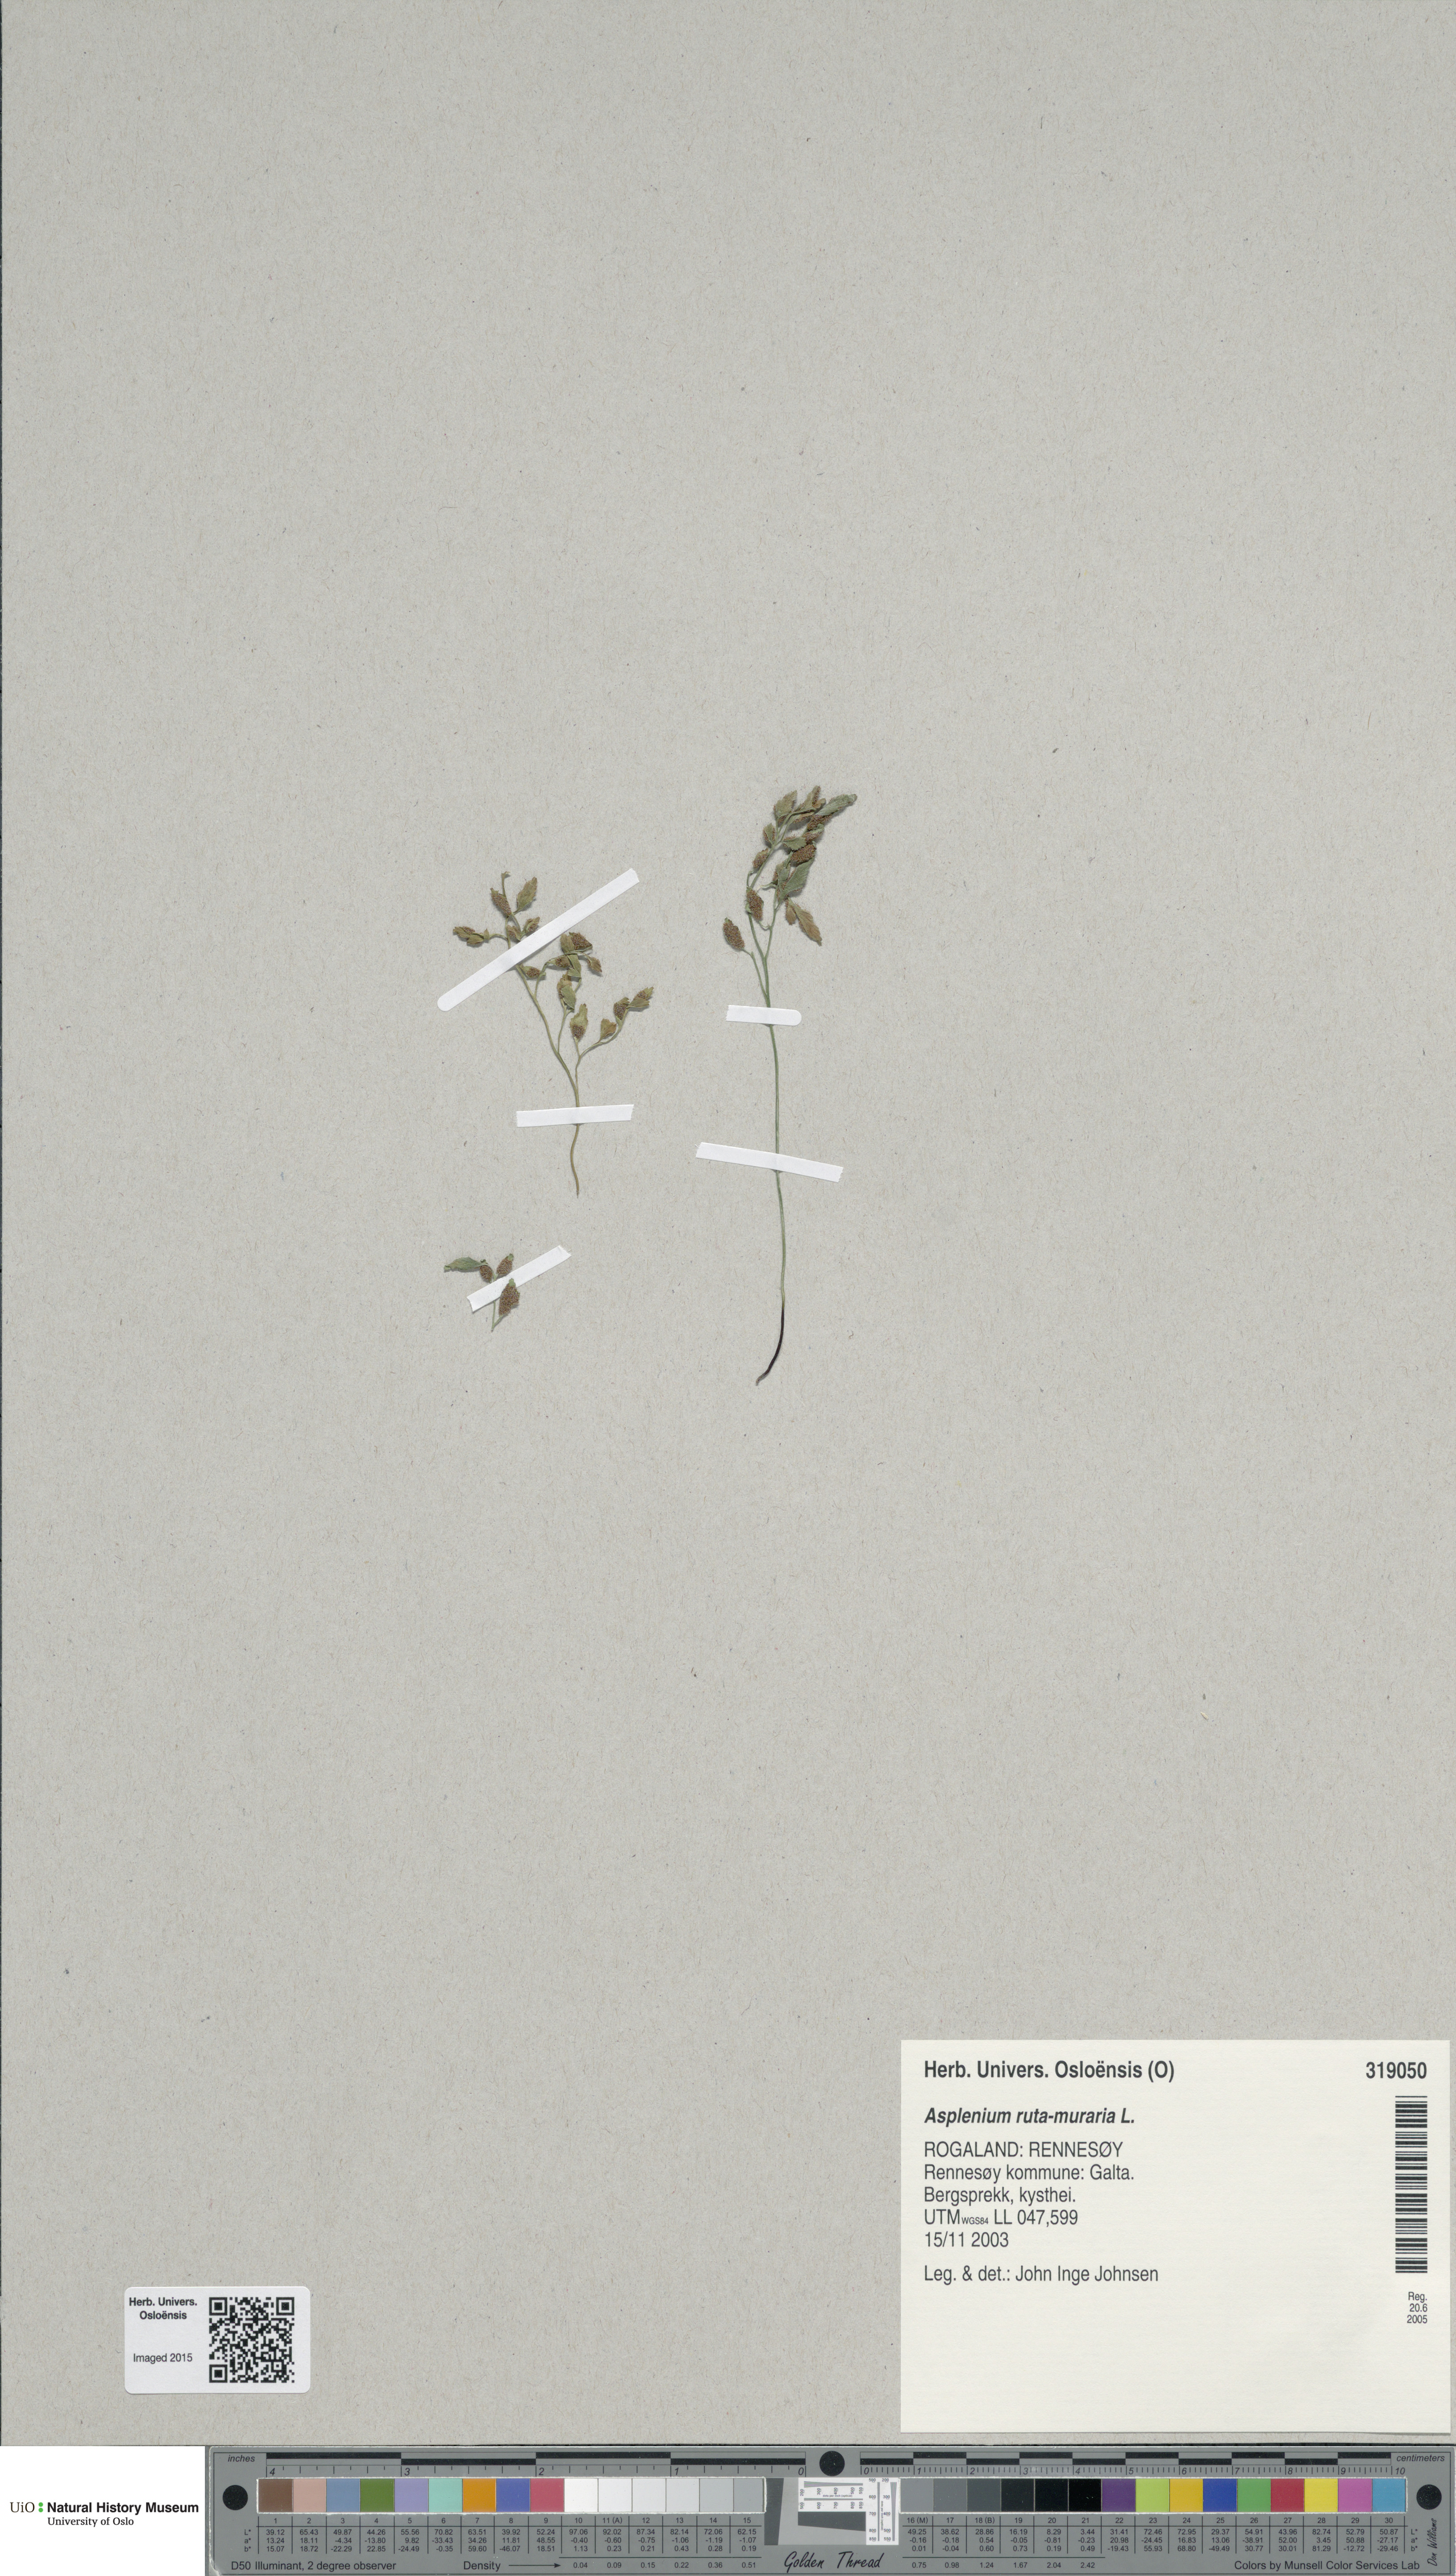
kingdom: Plantae
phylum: Tracheophyta
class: Polypodiopsida
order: Polypodiales
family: Aspleniaceae
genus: Asplenium
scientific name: Asplenium ruta-muraria
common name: Wall-rue
